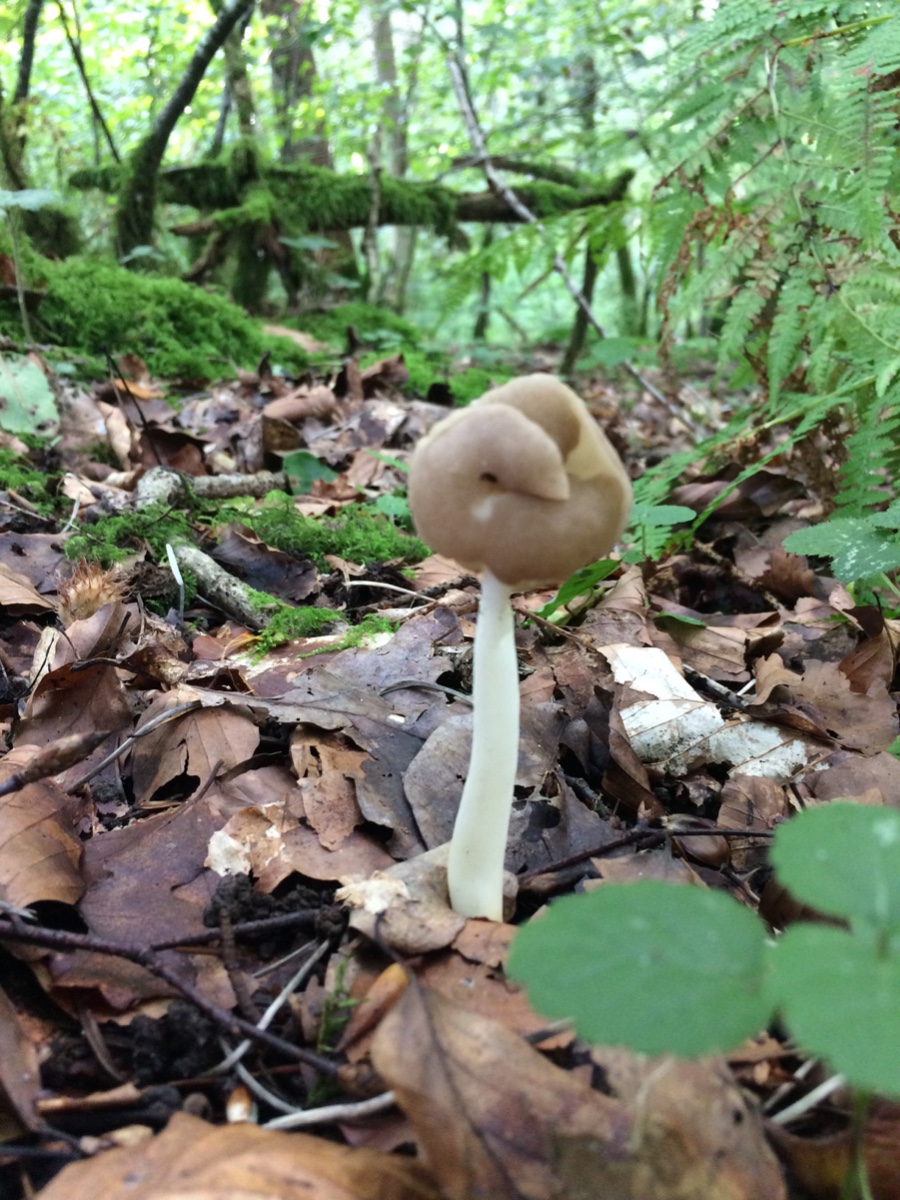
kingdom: Fungi
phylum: Ascomycota
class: Pezizomycetes
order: Pezizales
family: Helvellaceae
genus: Helvella
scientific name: Helvella
